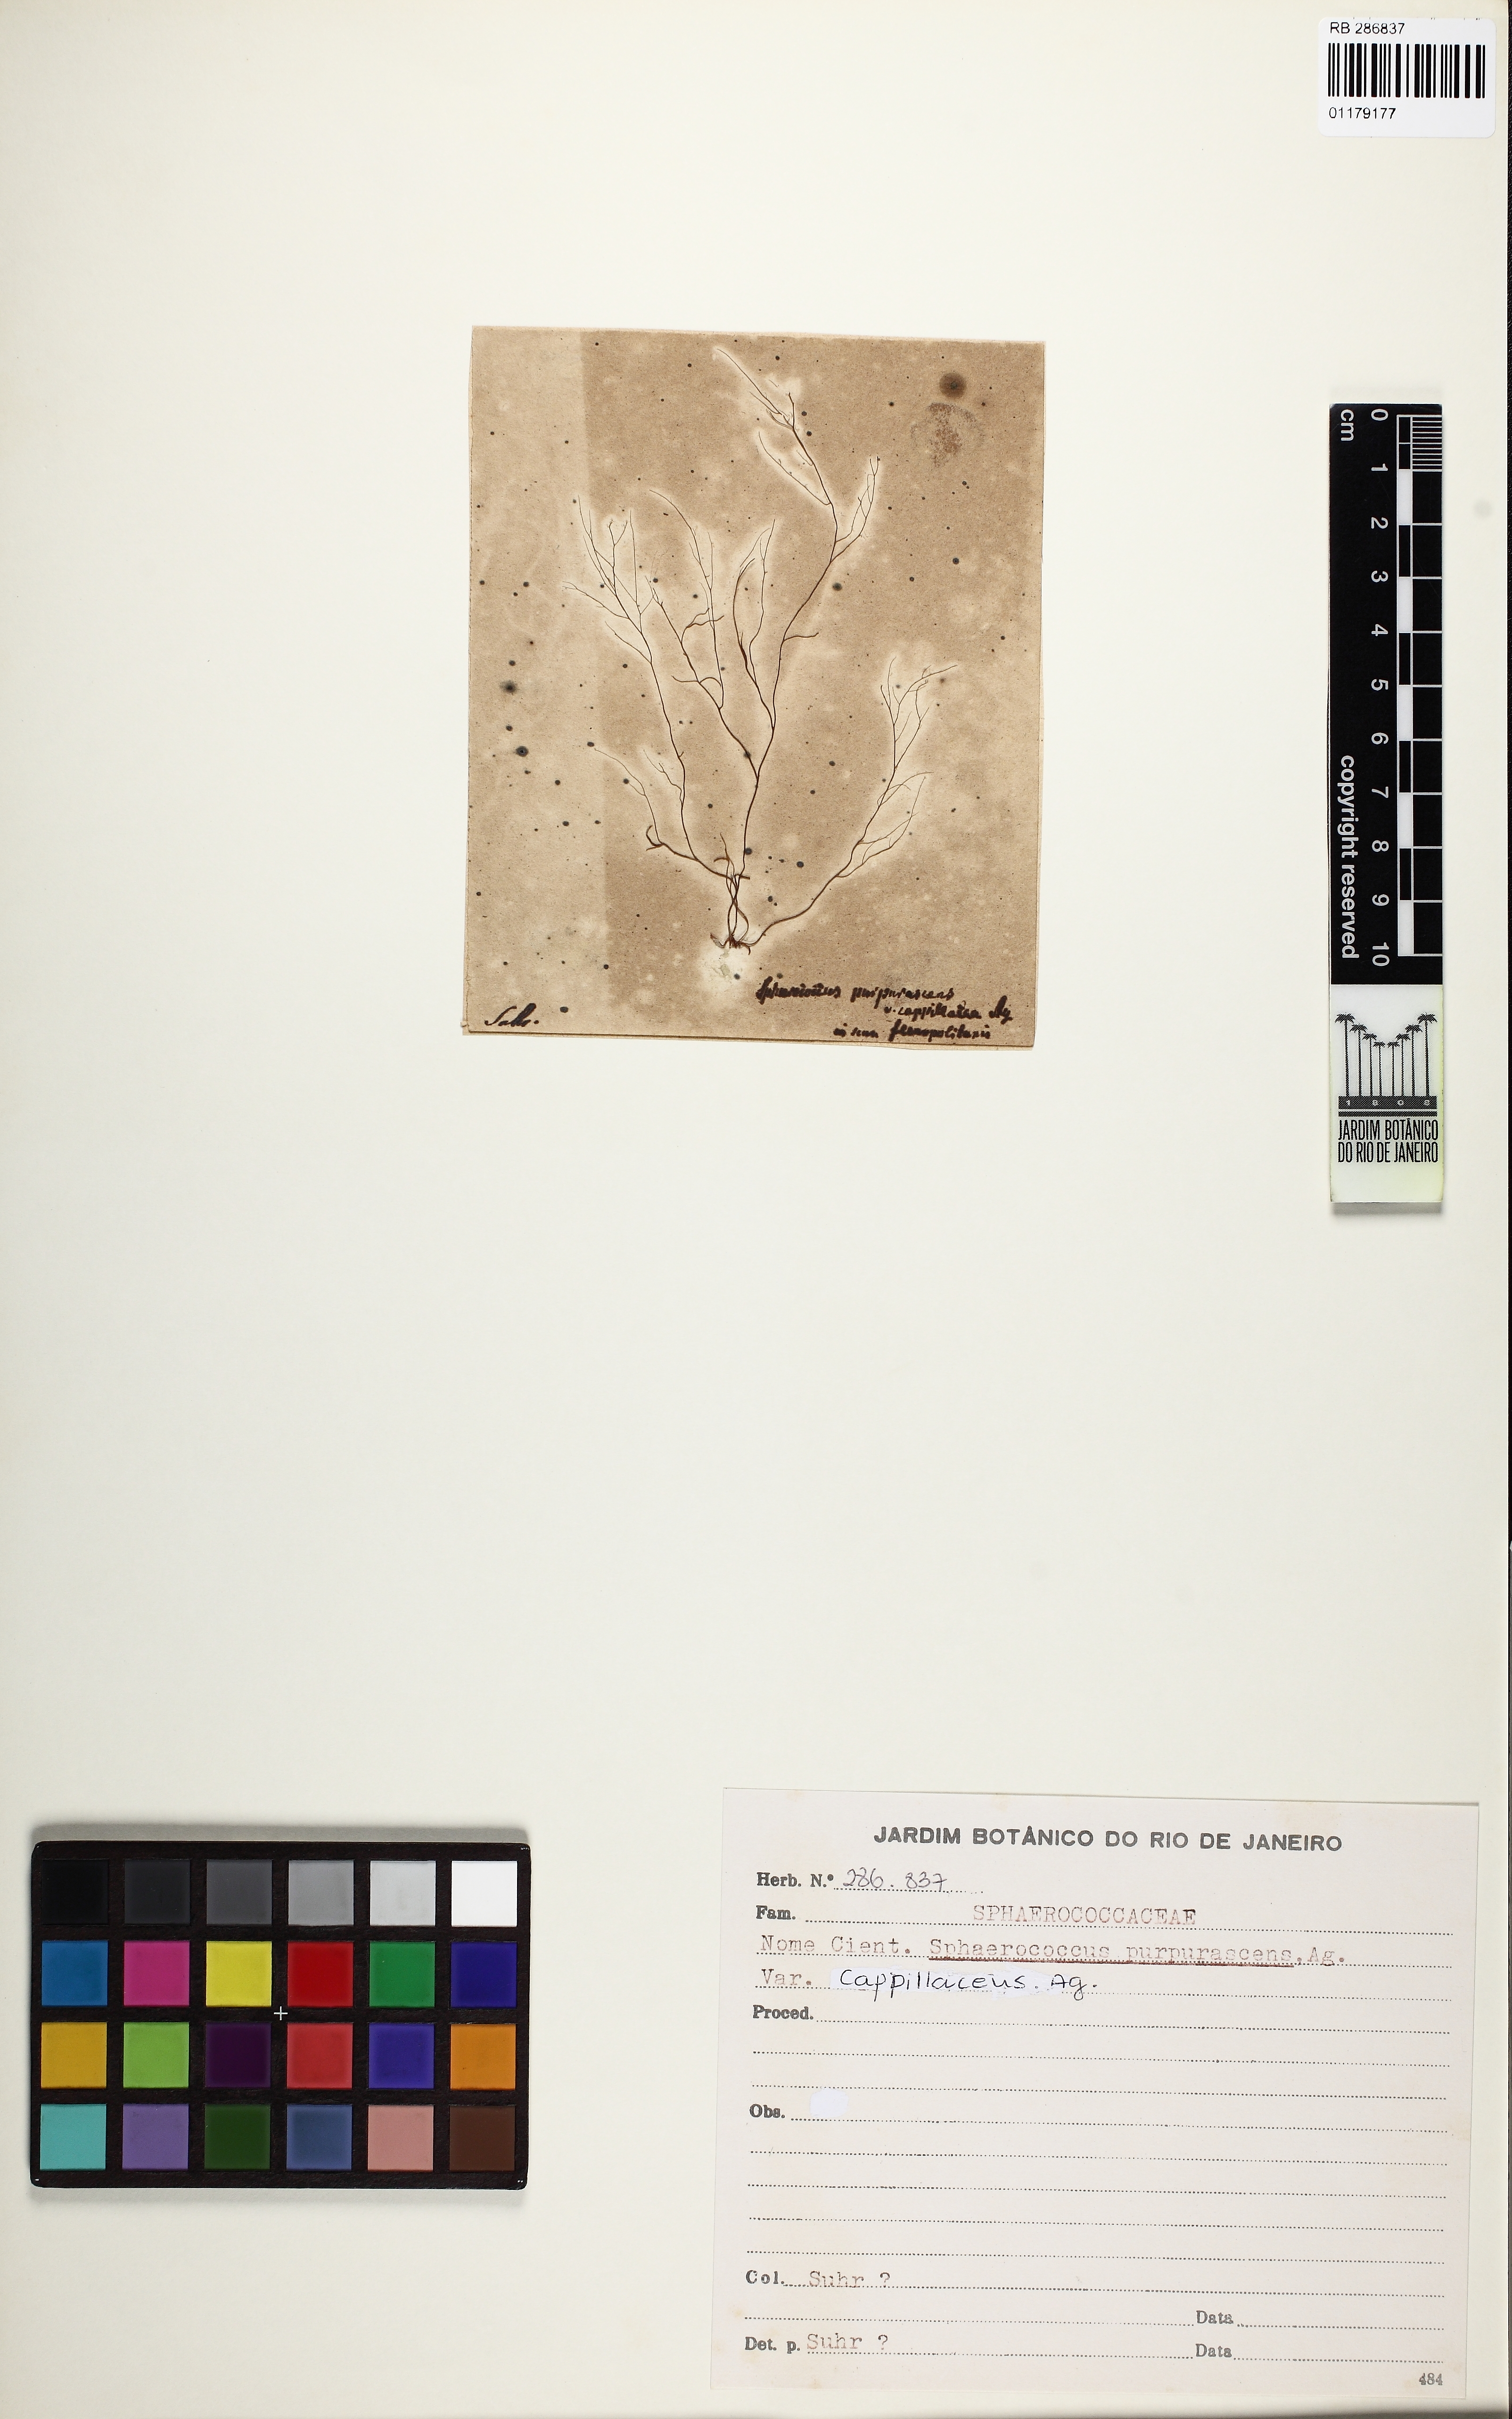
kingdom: Plantae
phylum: Rhodophyta
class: Florideophyceae
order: Gigartinales
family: Cystocloniaceae
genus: Cystoclonium
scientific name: Cystoclonium purpureum
